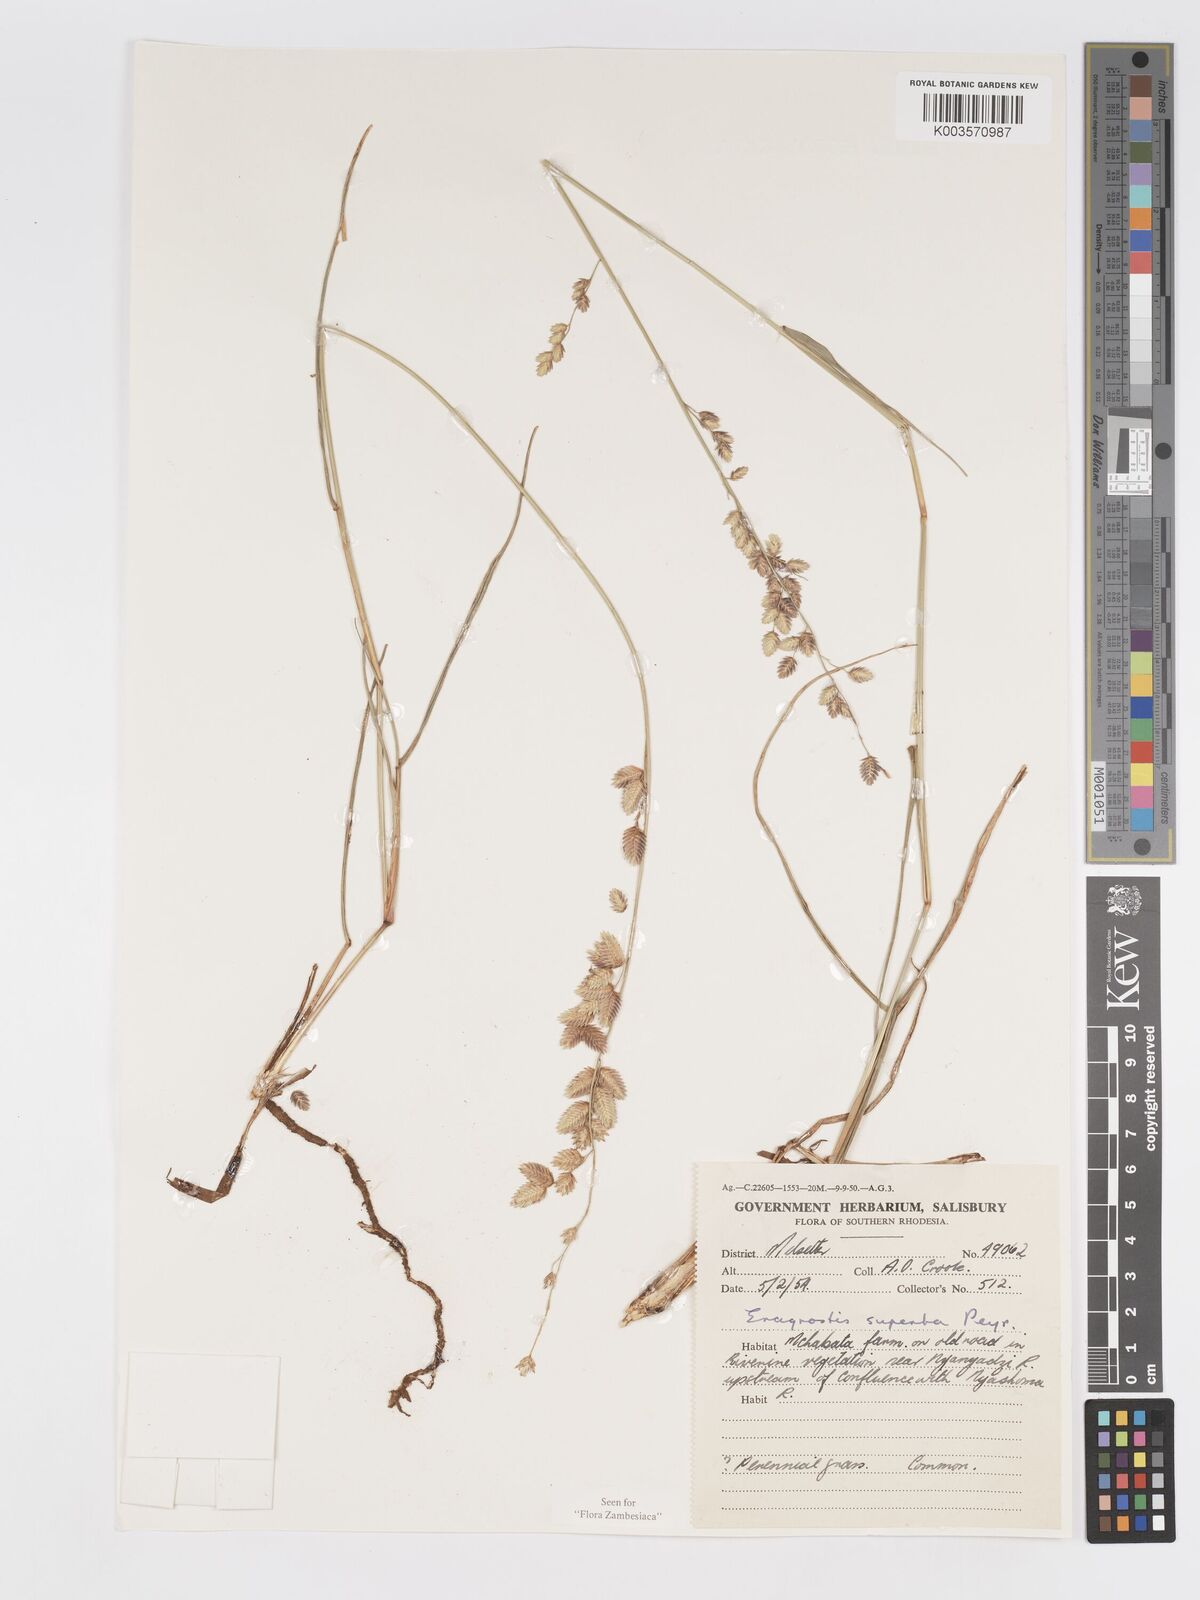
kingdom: Plantae
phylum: Tracheophyta
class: Liliopsida
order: Poales
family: Poaceae
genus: Eragrostis
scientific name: Eragrostis superba
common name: Wilman lovegrass
